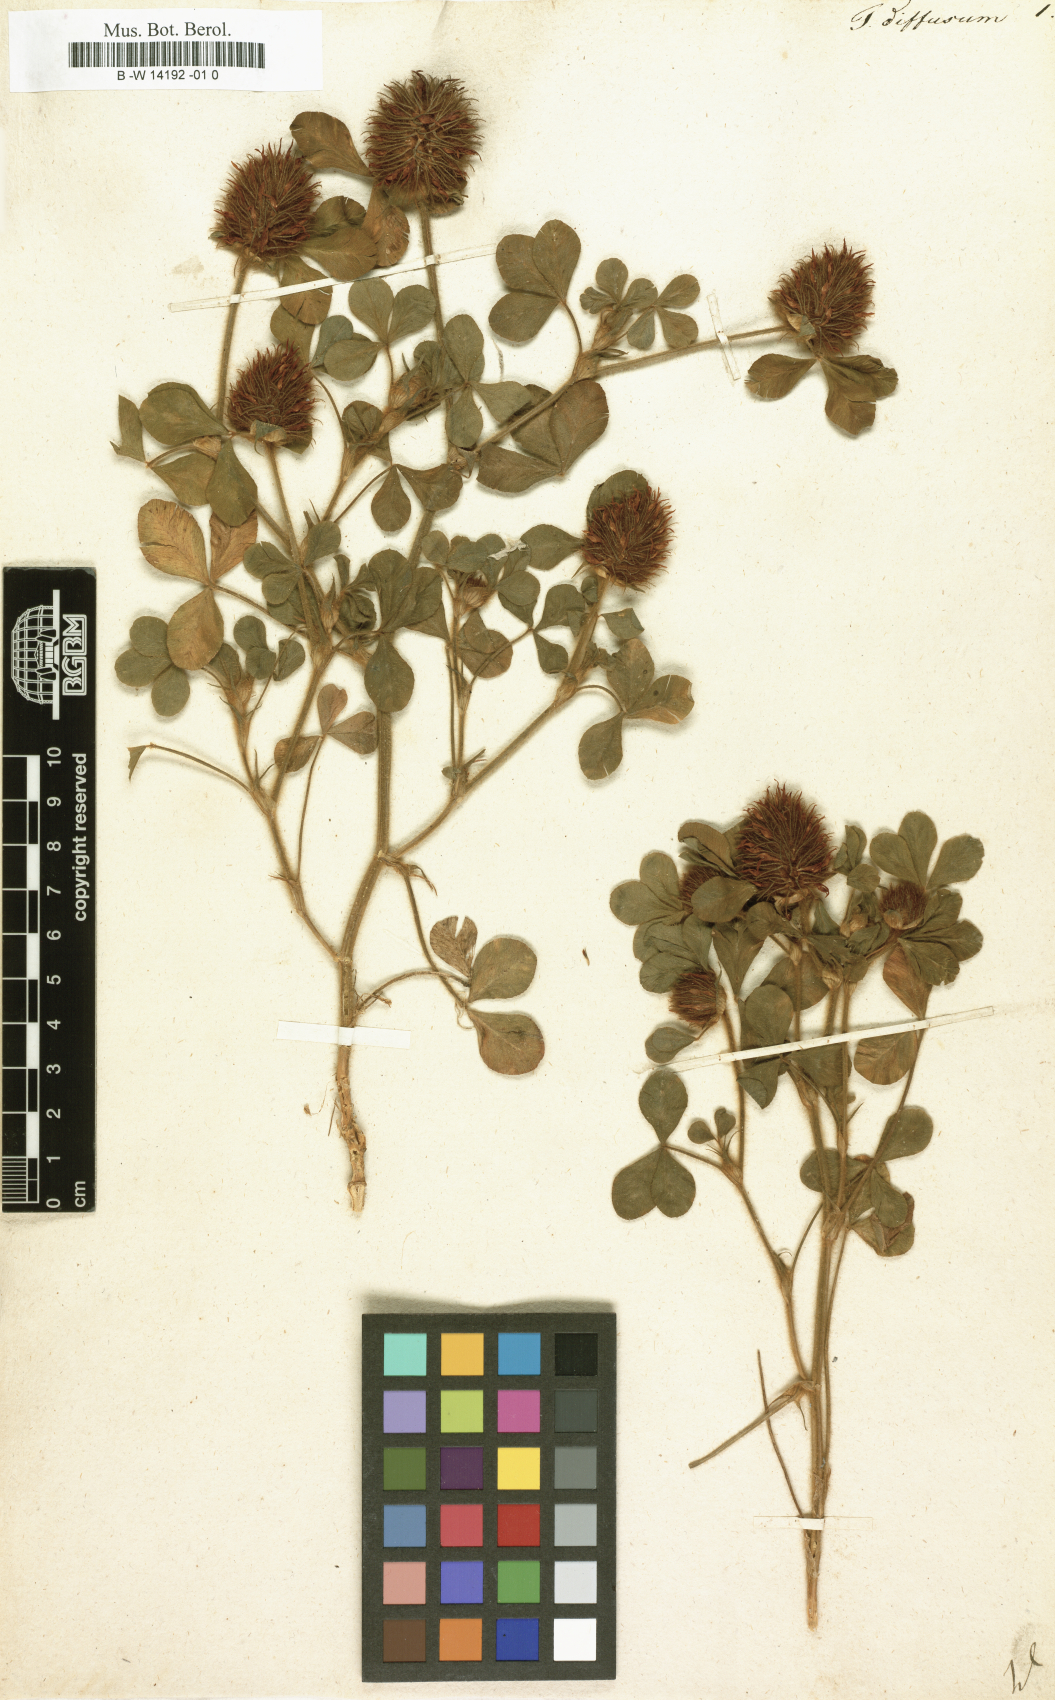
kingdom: Plantae
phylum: Tracheophyta
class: Magnoliopsida
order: Fabales
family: Fabaceae
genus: Trifolium
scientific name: Trifolium diffusum
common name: Diffuse clover
